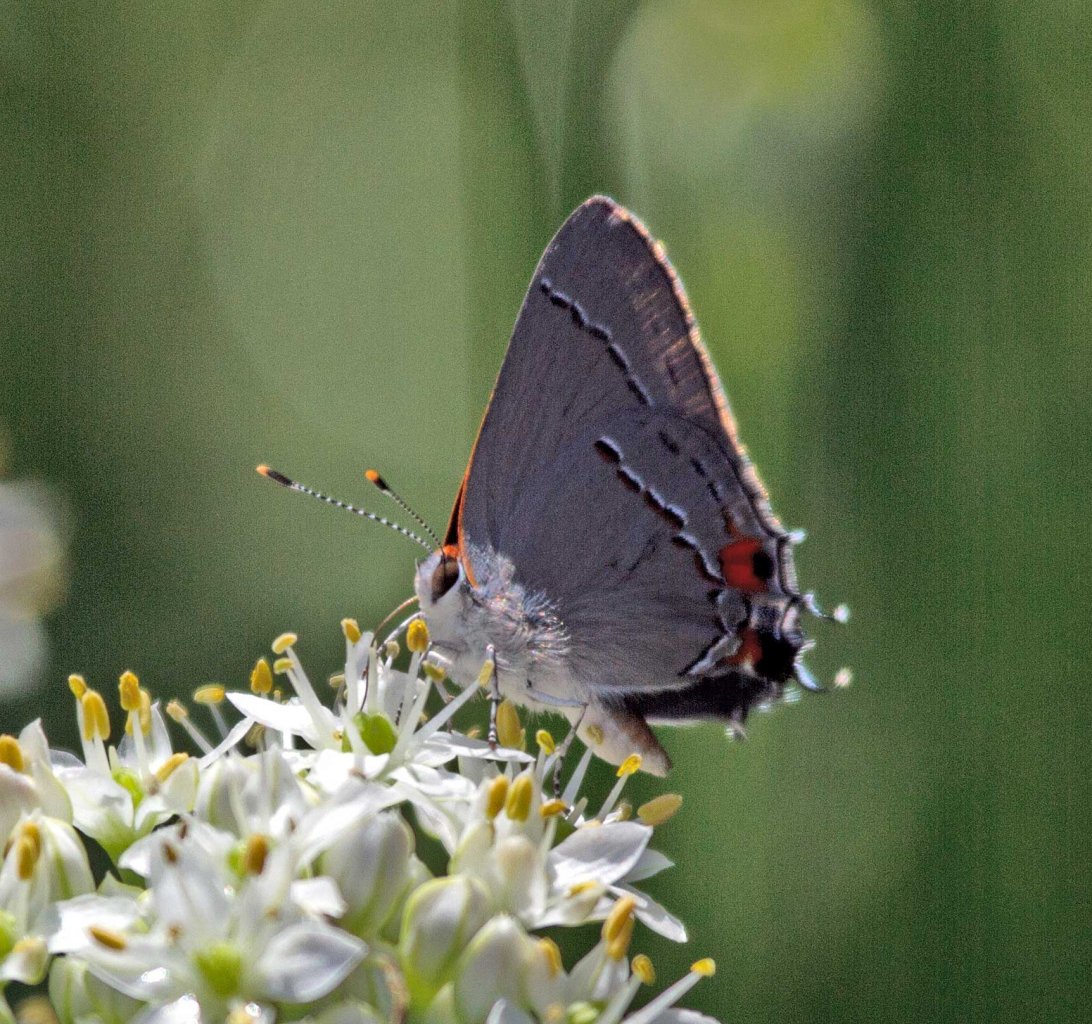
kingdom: Animalia
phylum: Arthropoda
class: Insecta
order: Lepidoptera
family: Lycaenidae
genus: Strymon
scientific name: Strymon melinus
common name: Gray Hairstreak
